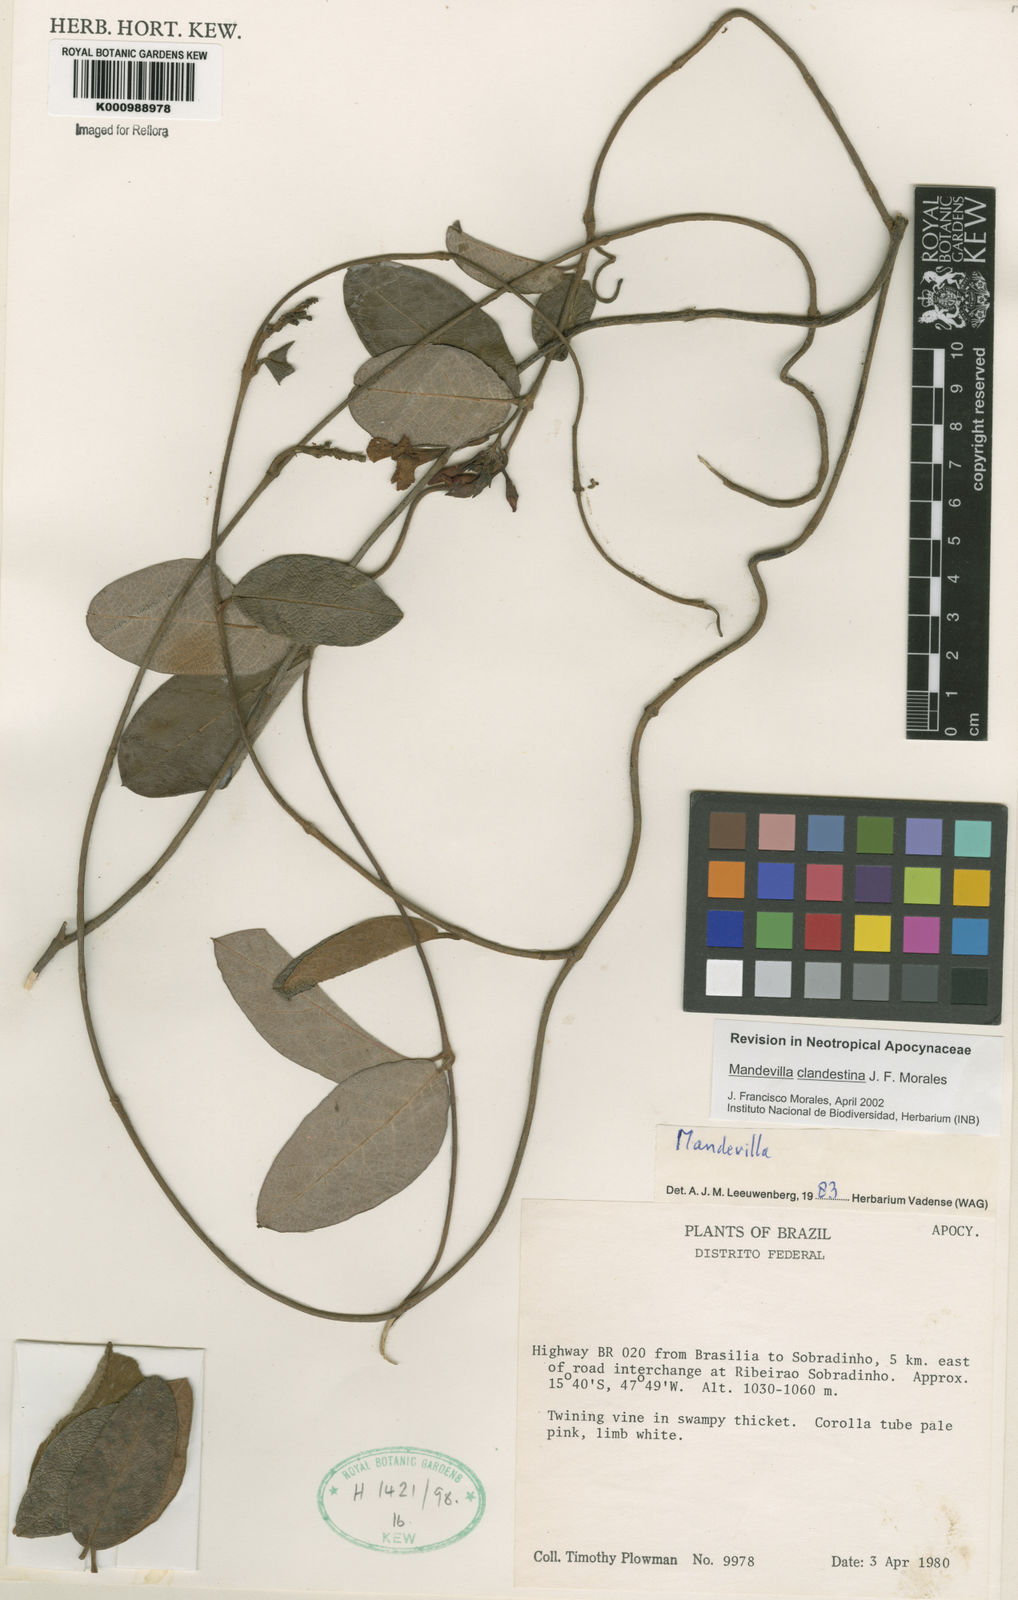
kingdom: Plantae
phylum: Tracheophyta
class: Magnoliopsida
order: Gentianales
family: Apocynaceae
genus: Mandevilla
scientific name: Mandevilla clandestina
